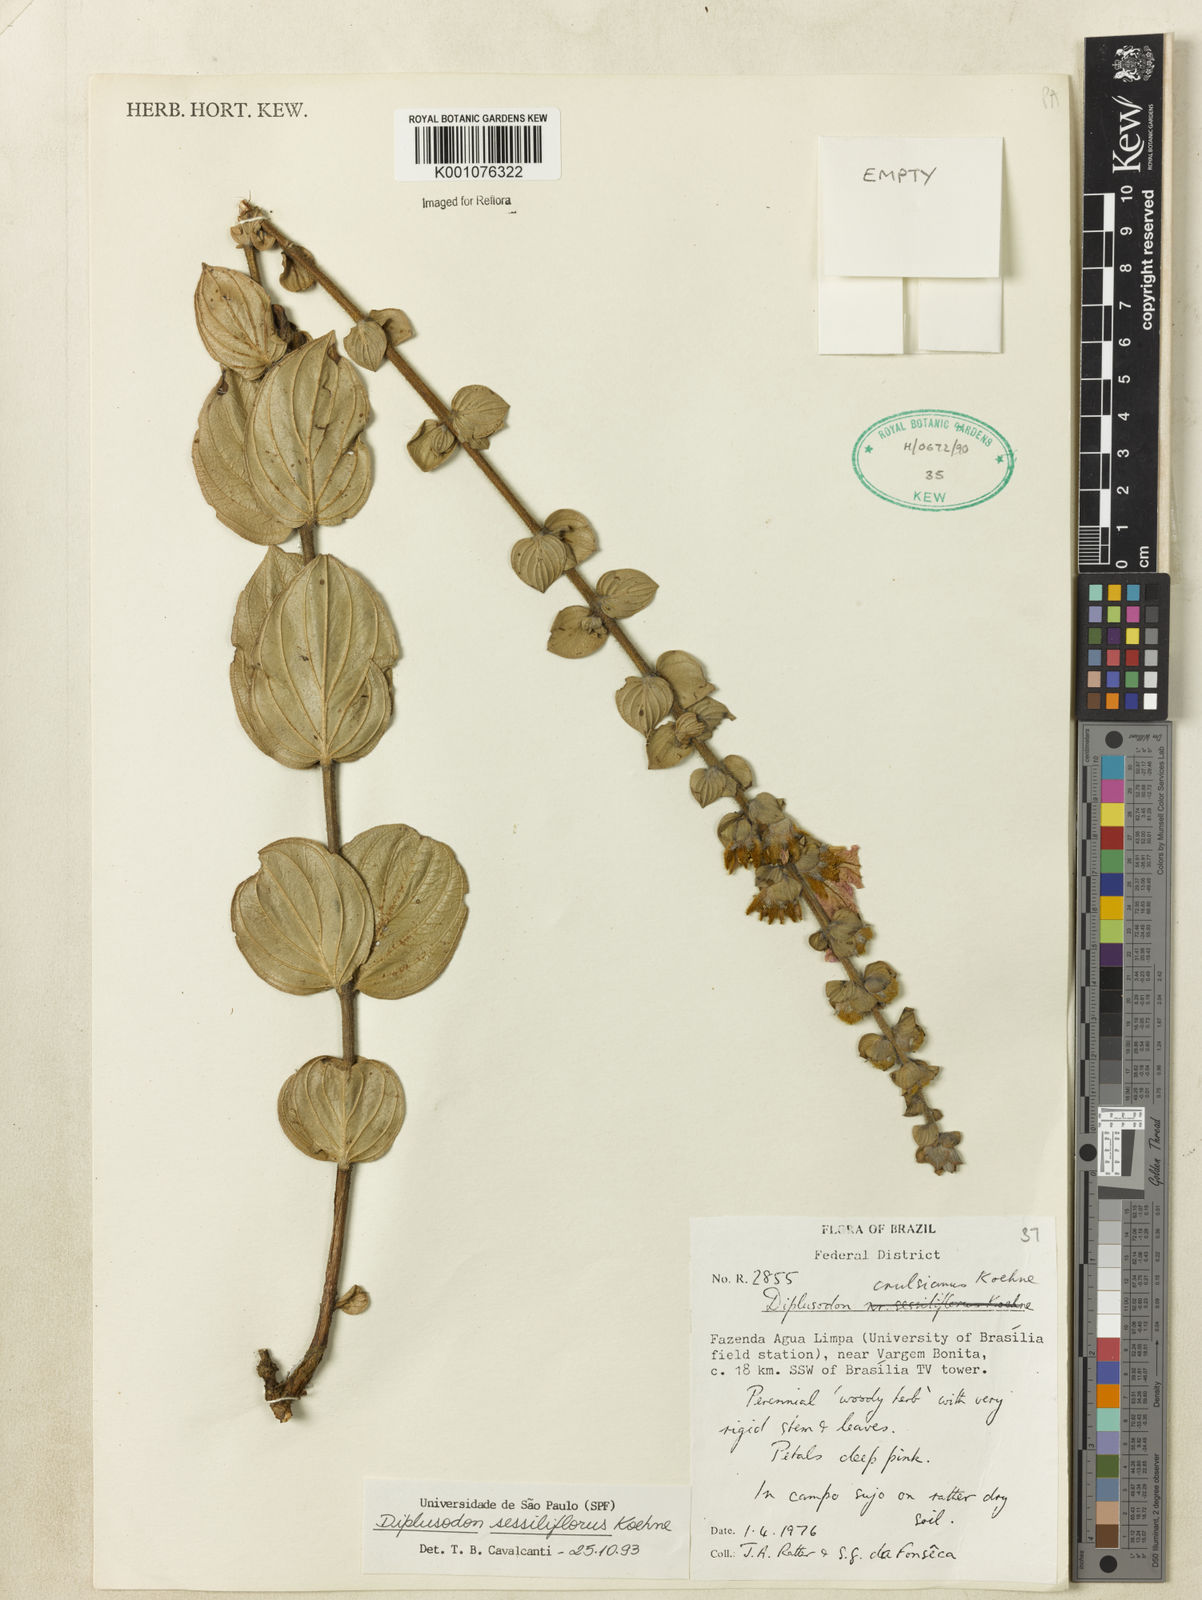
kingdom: Plantae
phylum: Tracheophyta
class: Magnoliopsida
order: Myrtales
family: Lythraceae
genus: Diplusodon
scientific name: Diplusodon sessiliflorus
